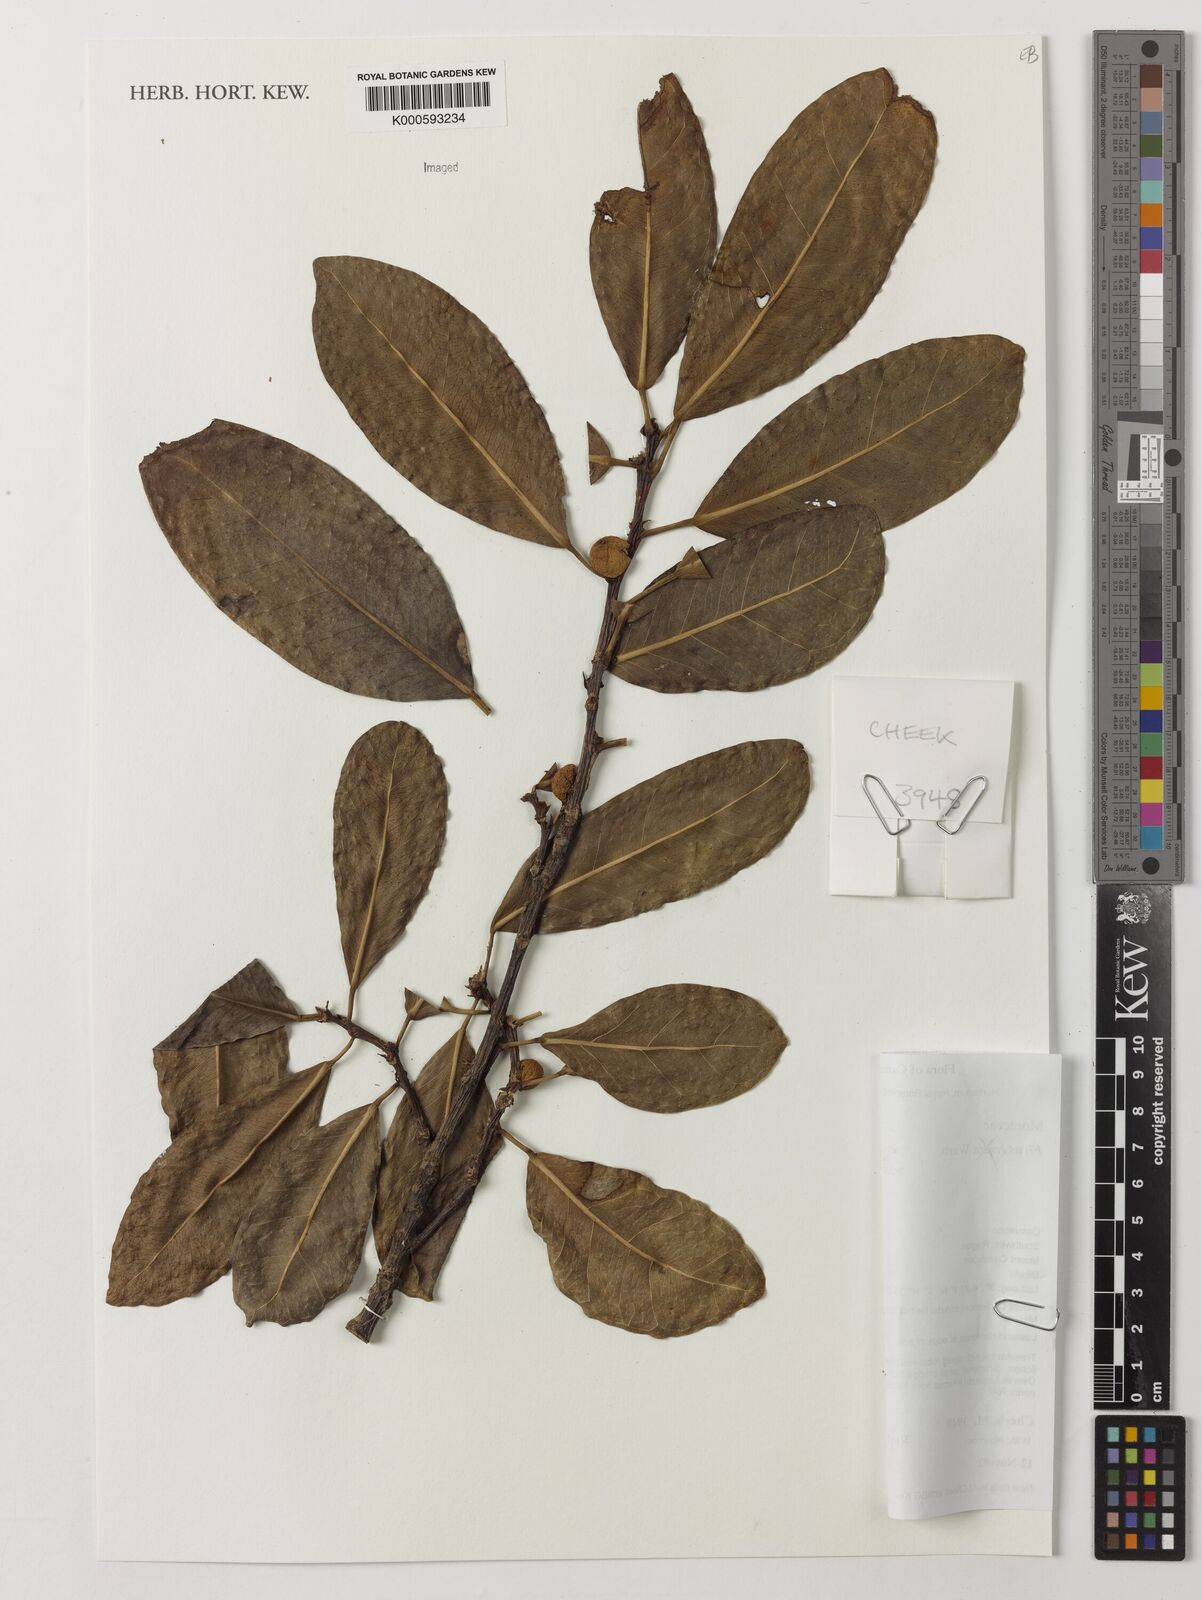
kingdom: Plantae
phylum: Tracheophyta
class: Magnoliopsida
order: Rosales
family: Moraceae
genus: Ficus
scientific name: Ficus
